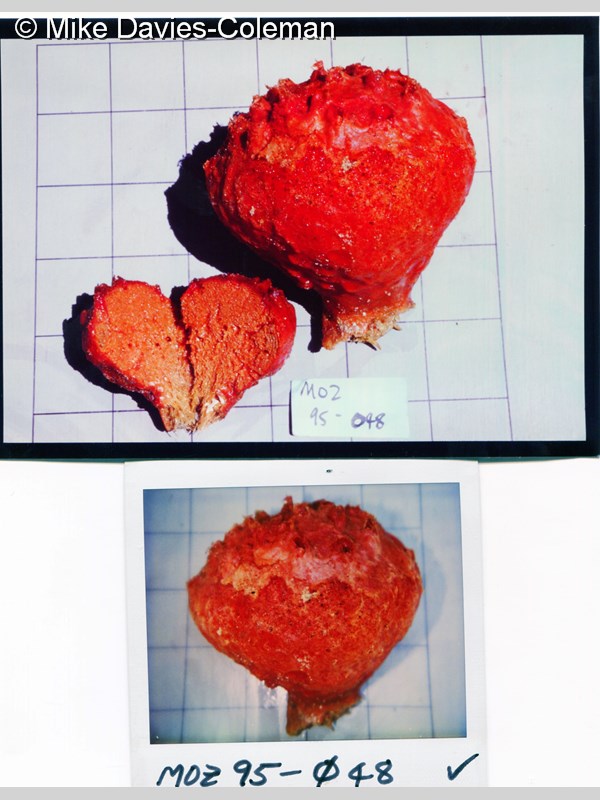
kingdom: Animalia
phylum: Porifera
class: Demospongiae
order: Haplosclerida
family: Petrosiidae
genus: Petrosia
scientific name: Petrosia
